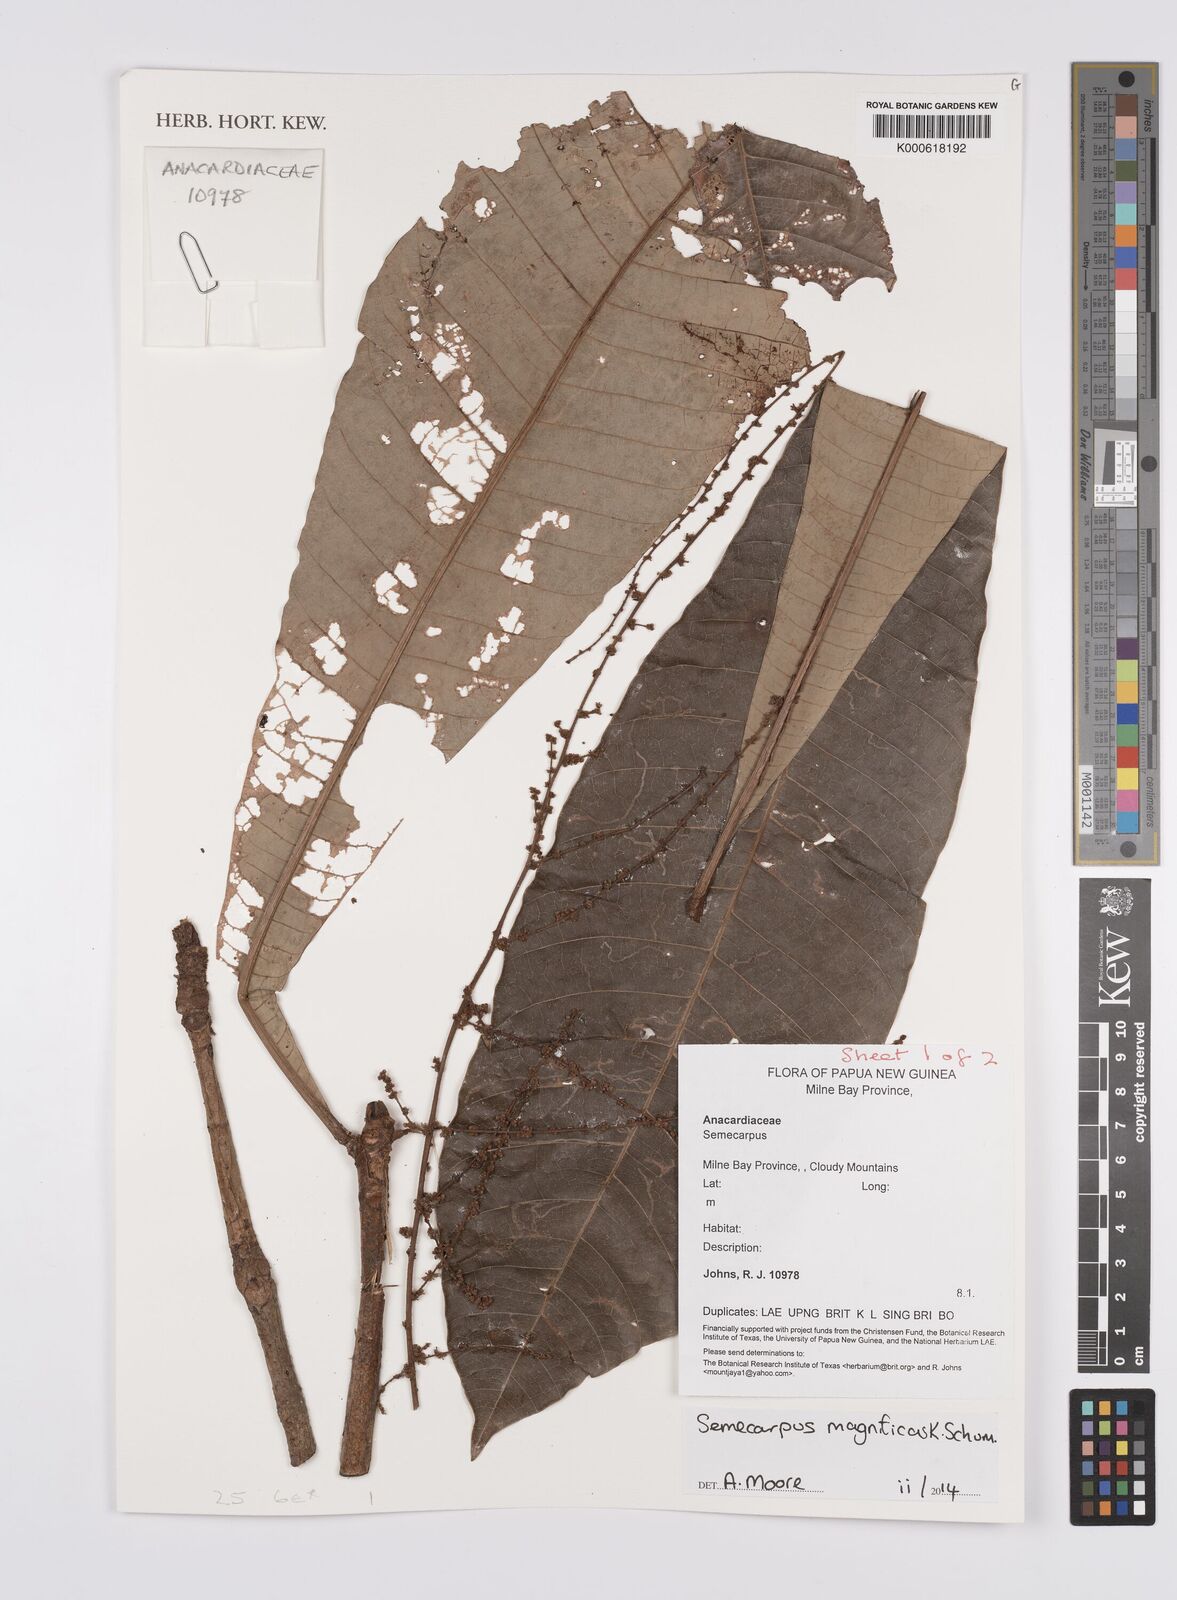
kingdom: Plantae
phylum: Tracheophyta
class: Magnoliopsida
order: Sapindales
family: Anacardiaceae
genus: Semecarpus
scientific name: Semecarpus magnificus
